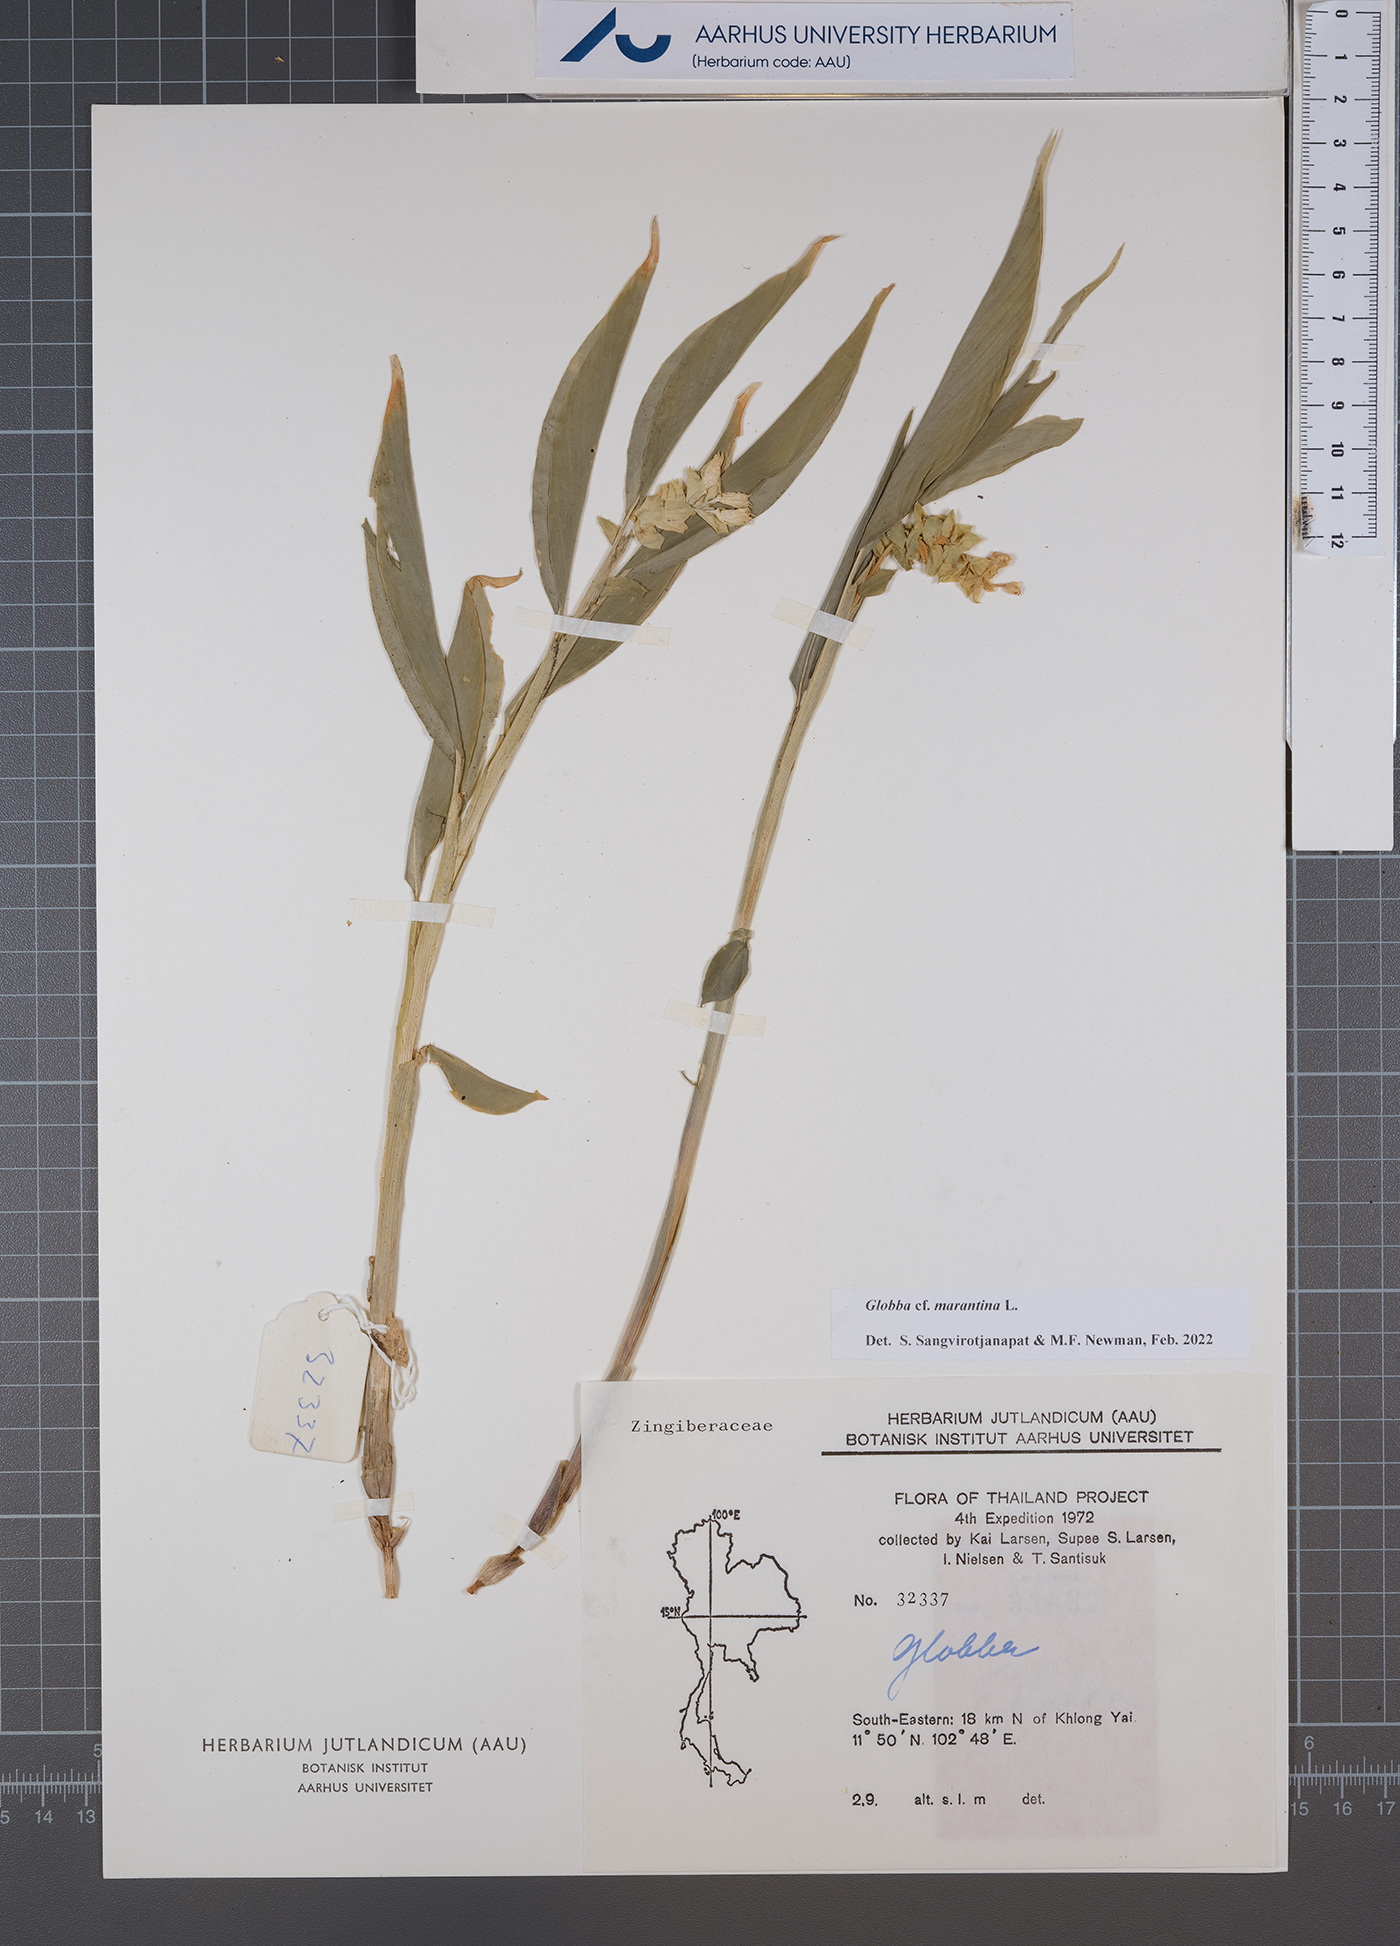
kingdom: Plantae
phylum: Tracheophyta
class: Liliopsida
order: Zingiberales
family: Zingiberaceae
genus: Globba
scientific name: Globba marantina
